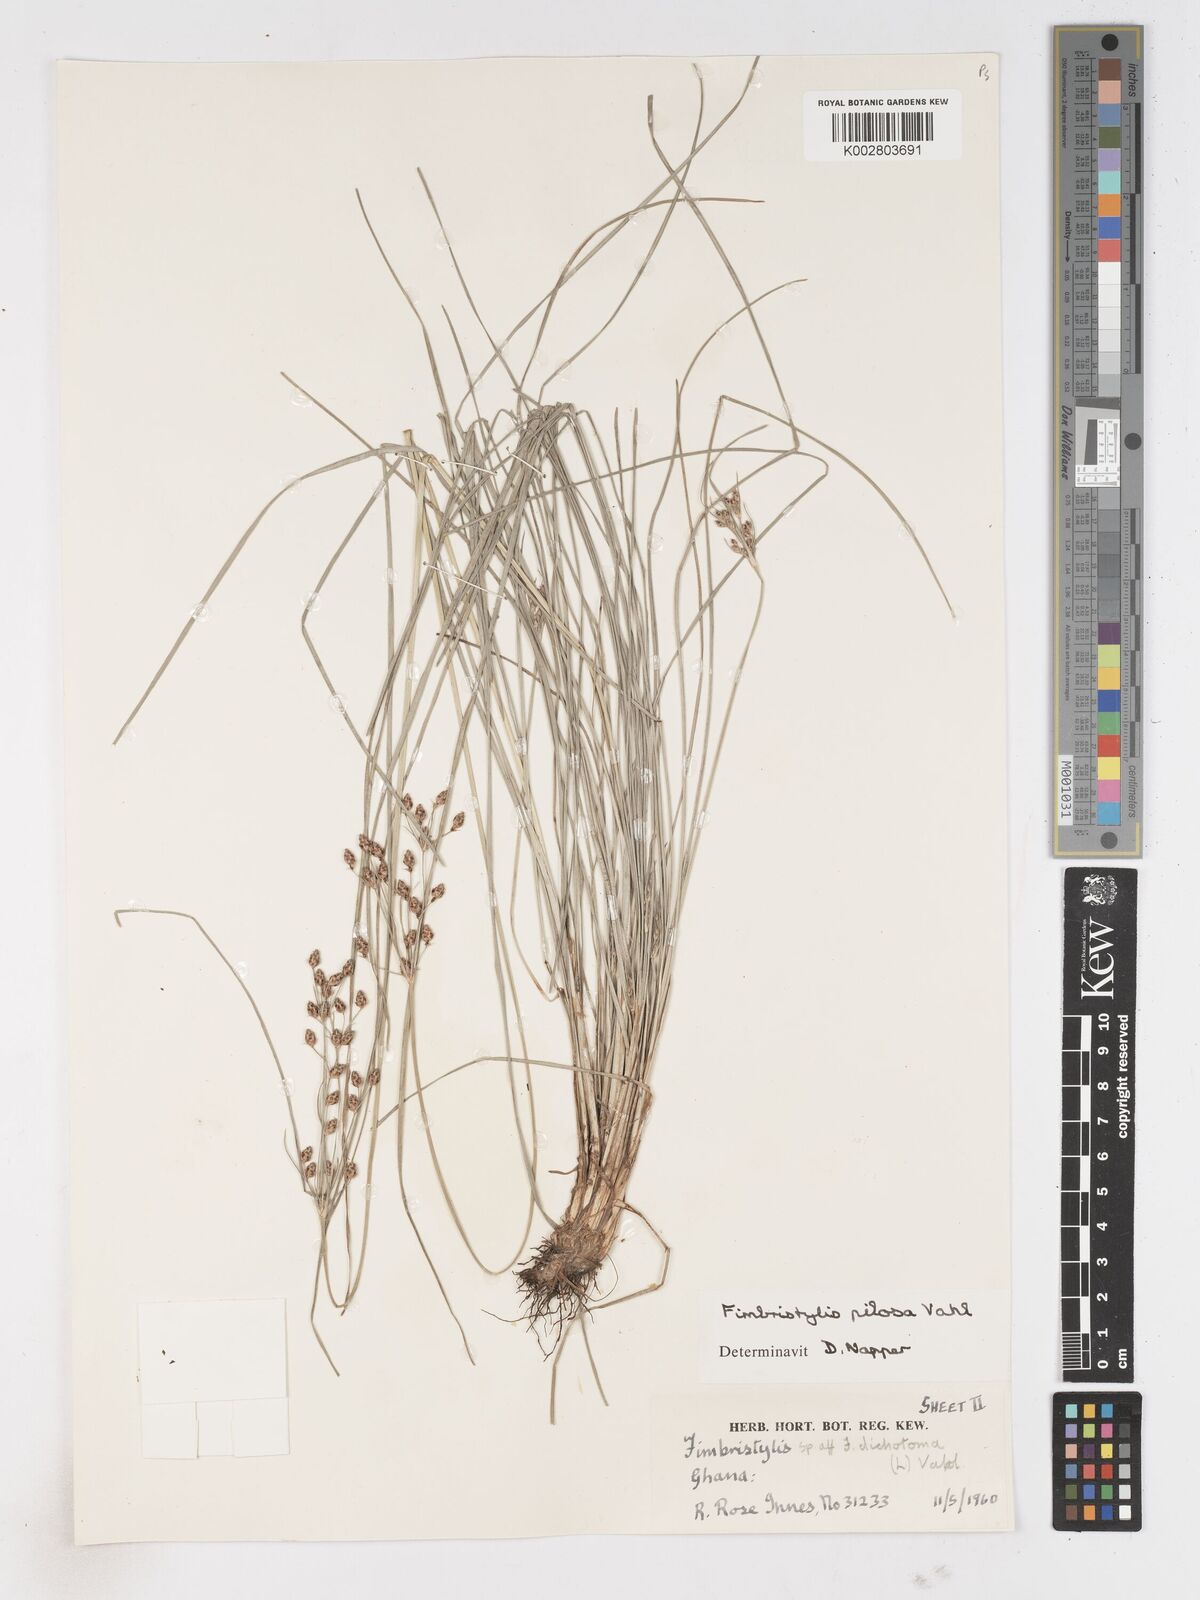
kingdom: Plantae
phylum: Tracheophyta
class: Liliopsida
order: Poales
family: Cyperaceae
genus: Fimbristylis
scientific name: Fimbristylis pilosa
